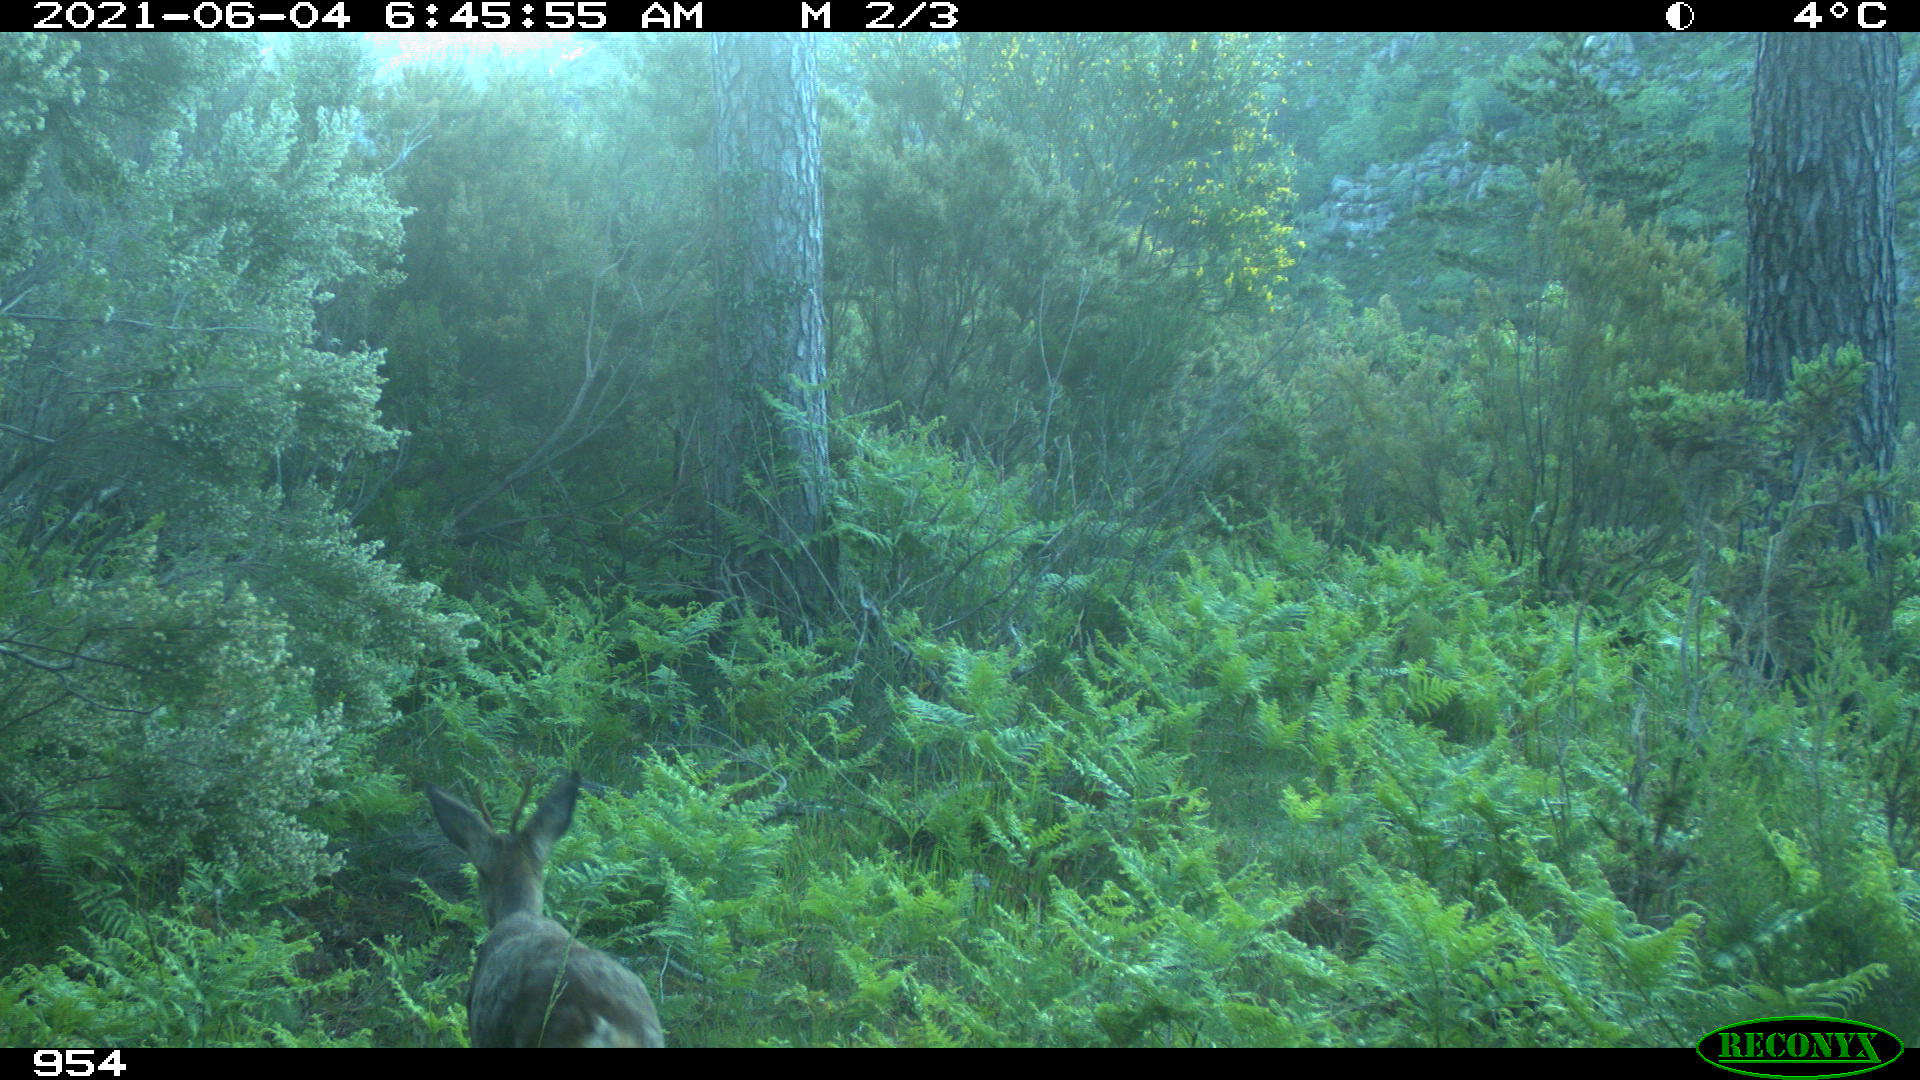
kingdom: Animalia
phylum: Chordata
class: Mammalia
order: Artiodactyla
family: Cervidae
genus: Capreolus
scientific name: Capreolus capreolus
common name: Western roe deer
